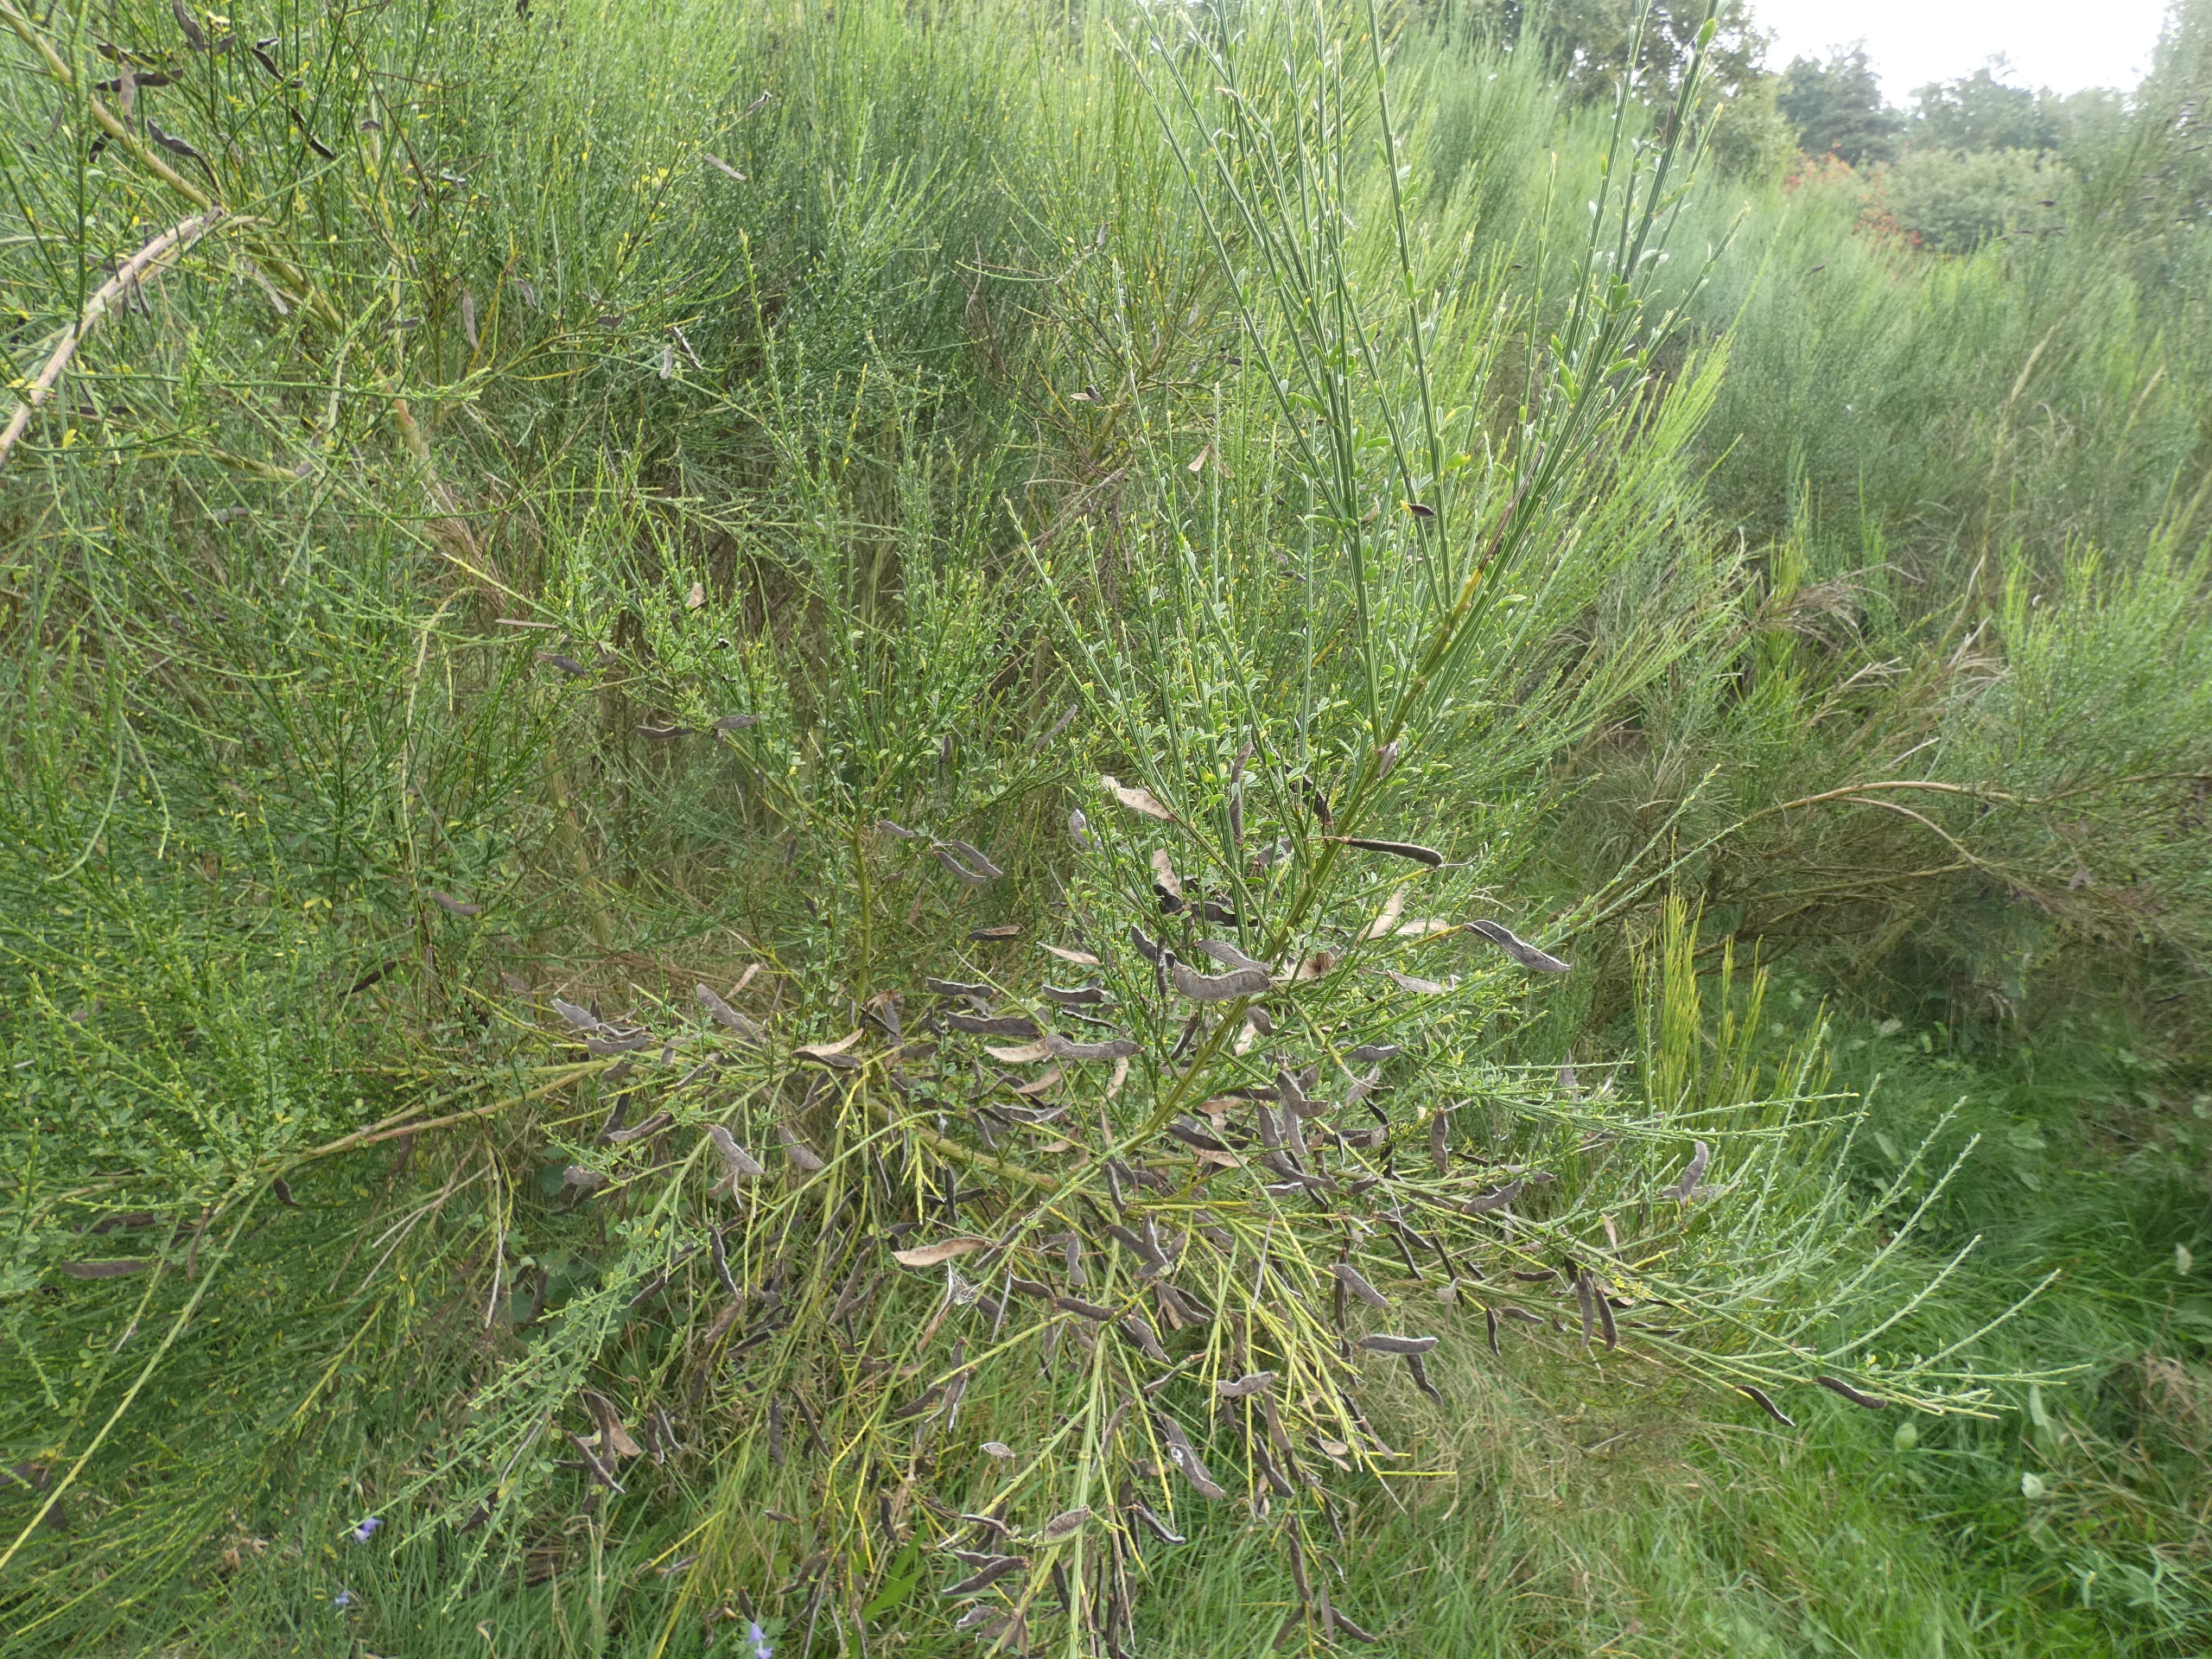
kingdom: Plantae
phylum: Tracheophyta
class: Magnoliopsida
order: Fabales
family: Fabaceae
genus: Cytisus
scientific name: Cytisus scoparius
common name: Almindelig gyvel
